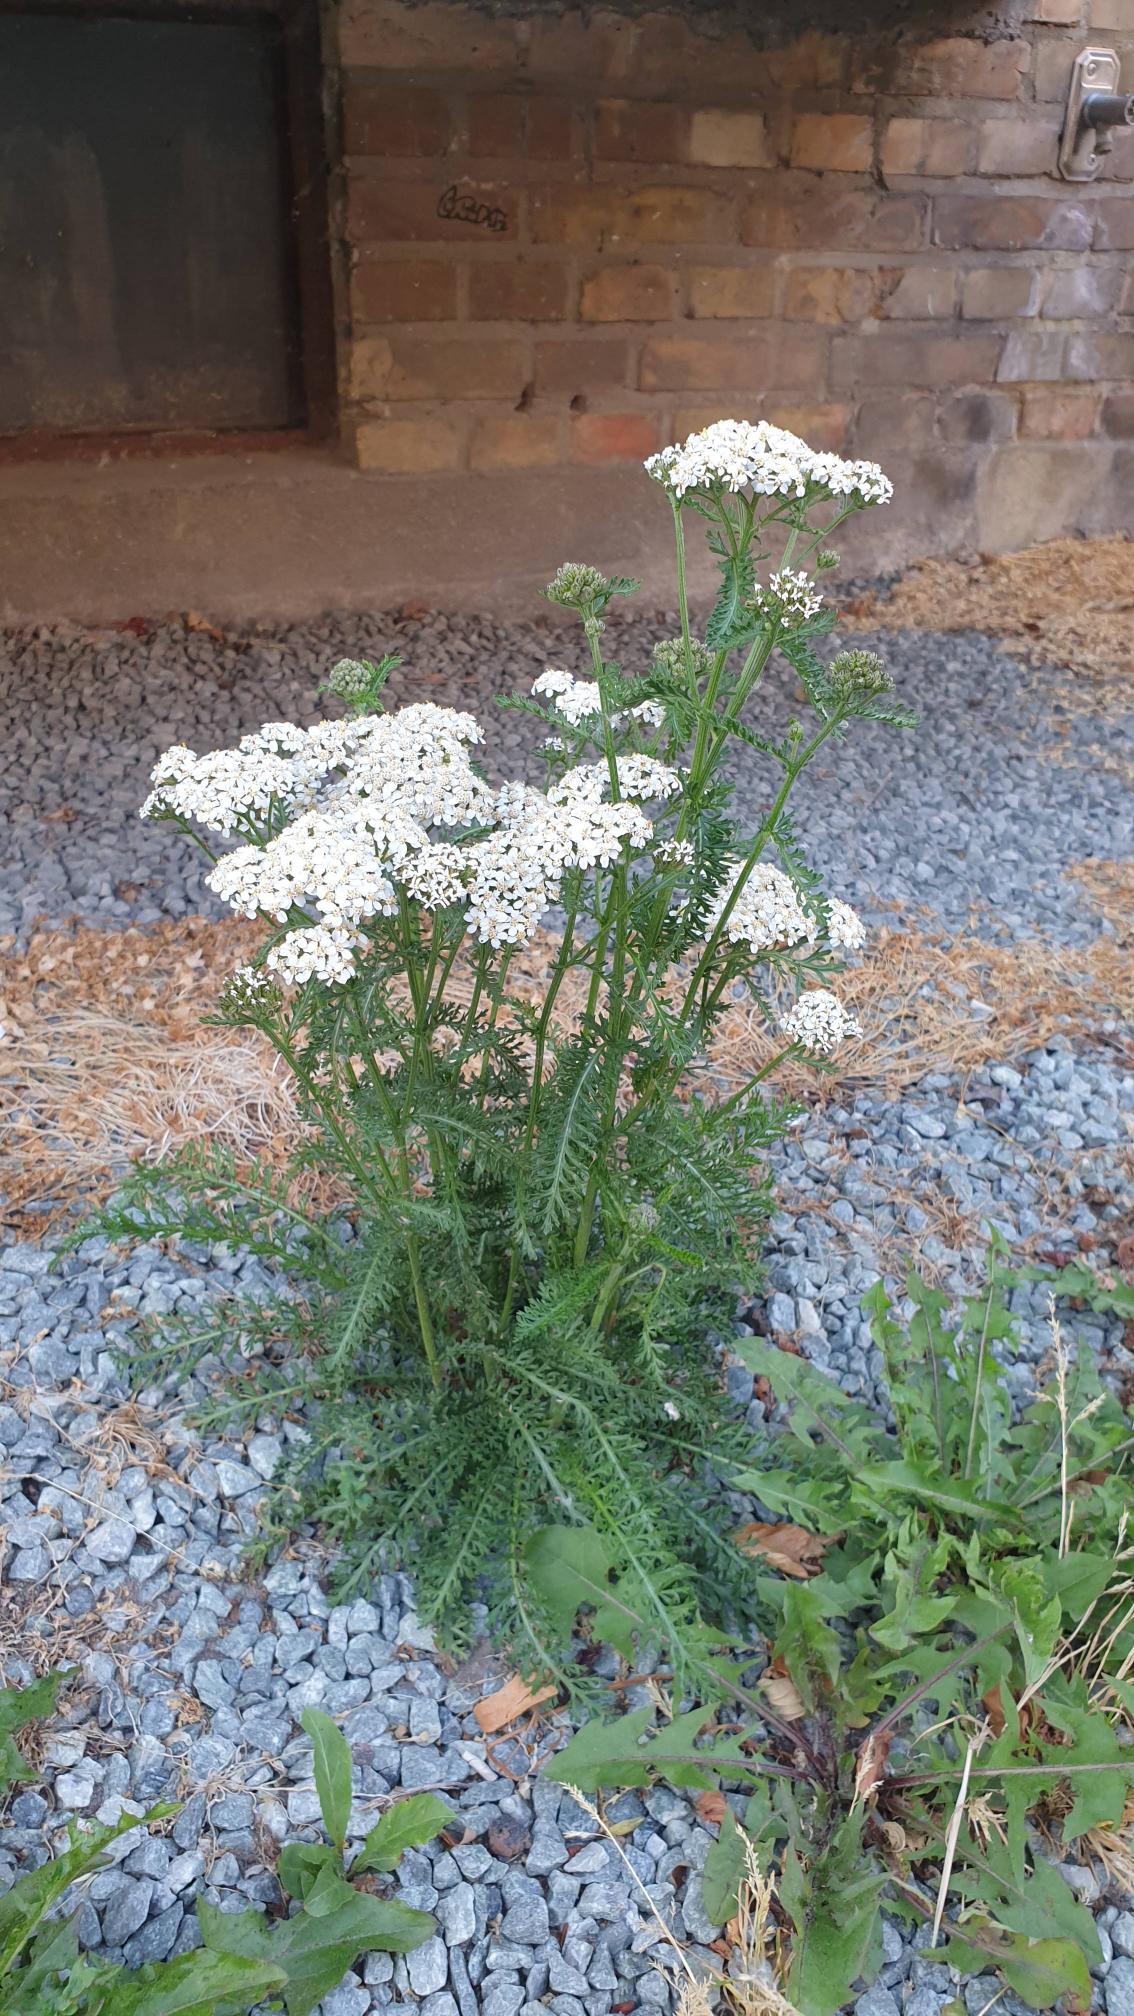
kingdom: Plantae
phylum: Tracheophyta
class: Magnoliopsida
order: Asterales
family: Asteraceae
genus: Achillea
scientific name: Achillea millefolium
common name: Almindelig røllike
